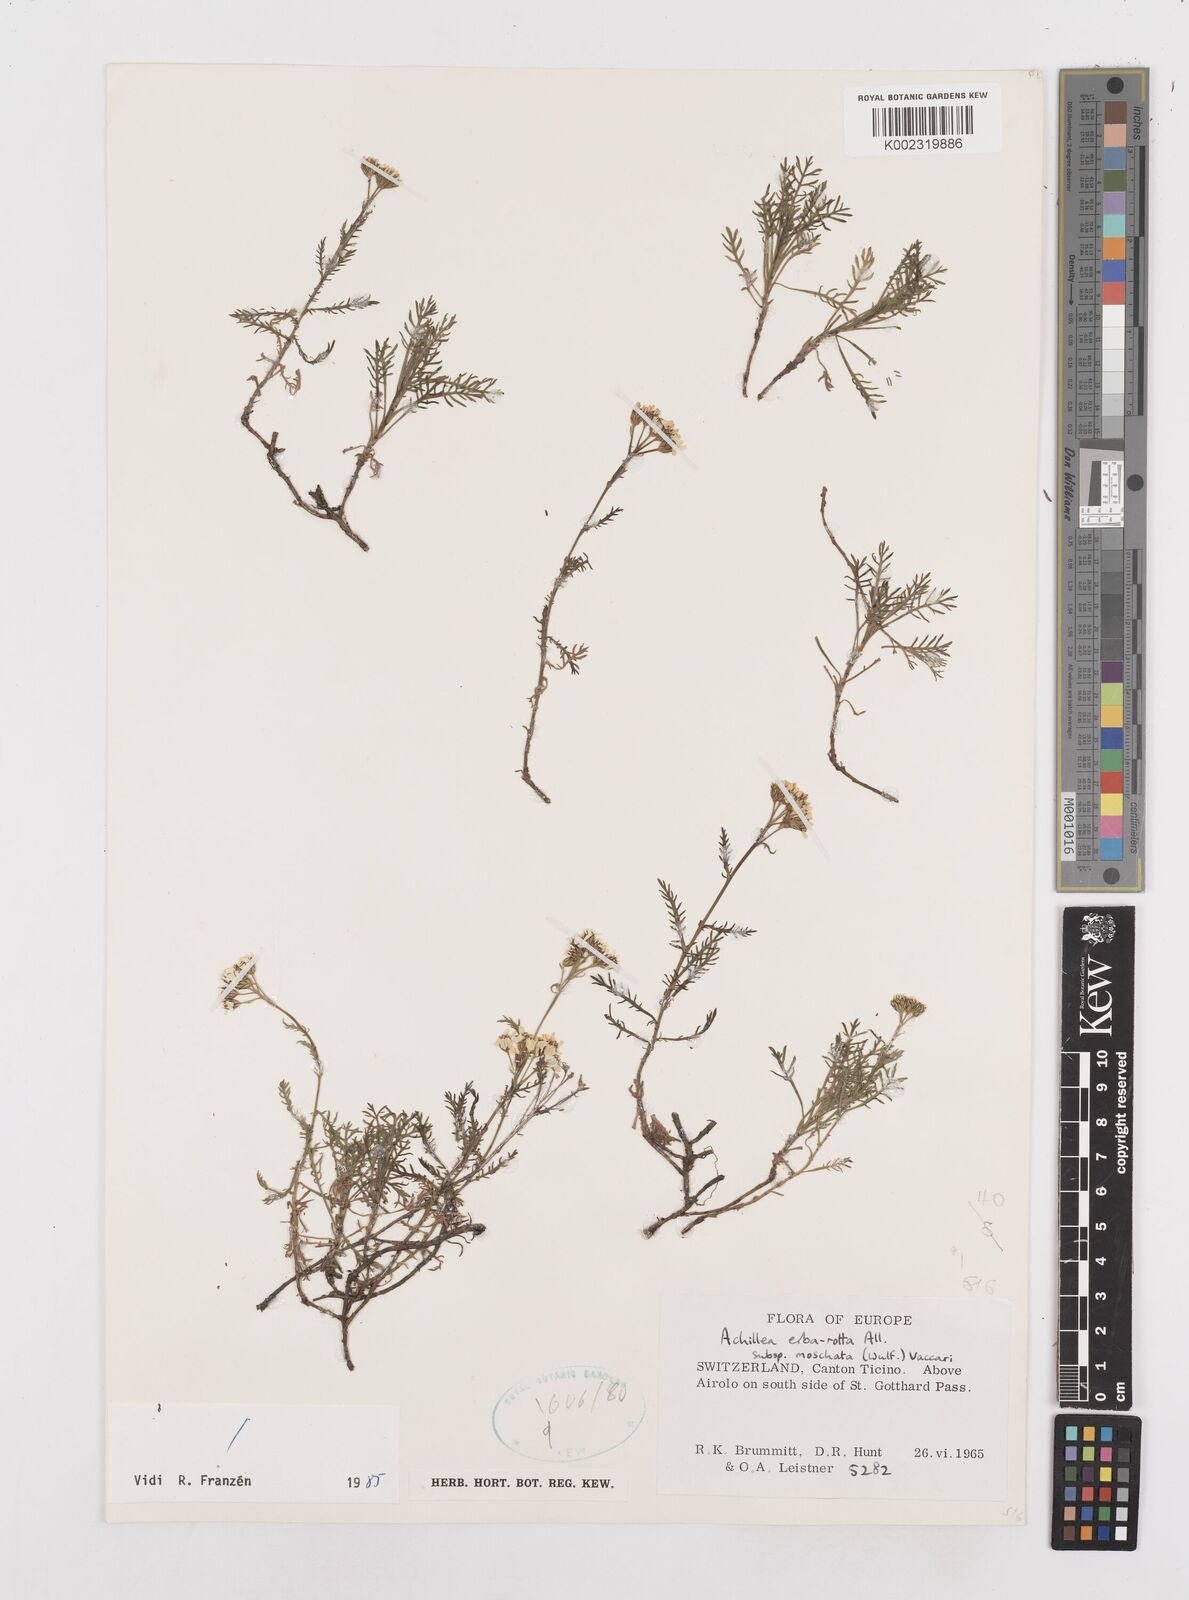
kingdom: Plantae
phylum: Tracheophyta
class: Magnoliopsida
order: Asterales
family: Asteraceae
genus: Achillea
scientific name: Achillea erba-rotta
